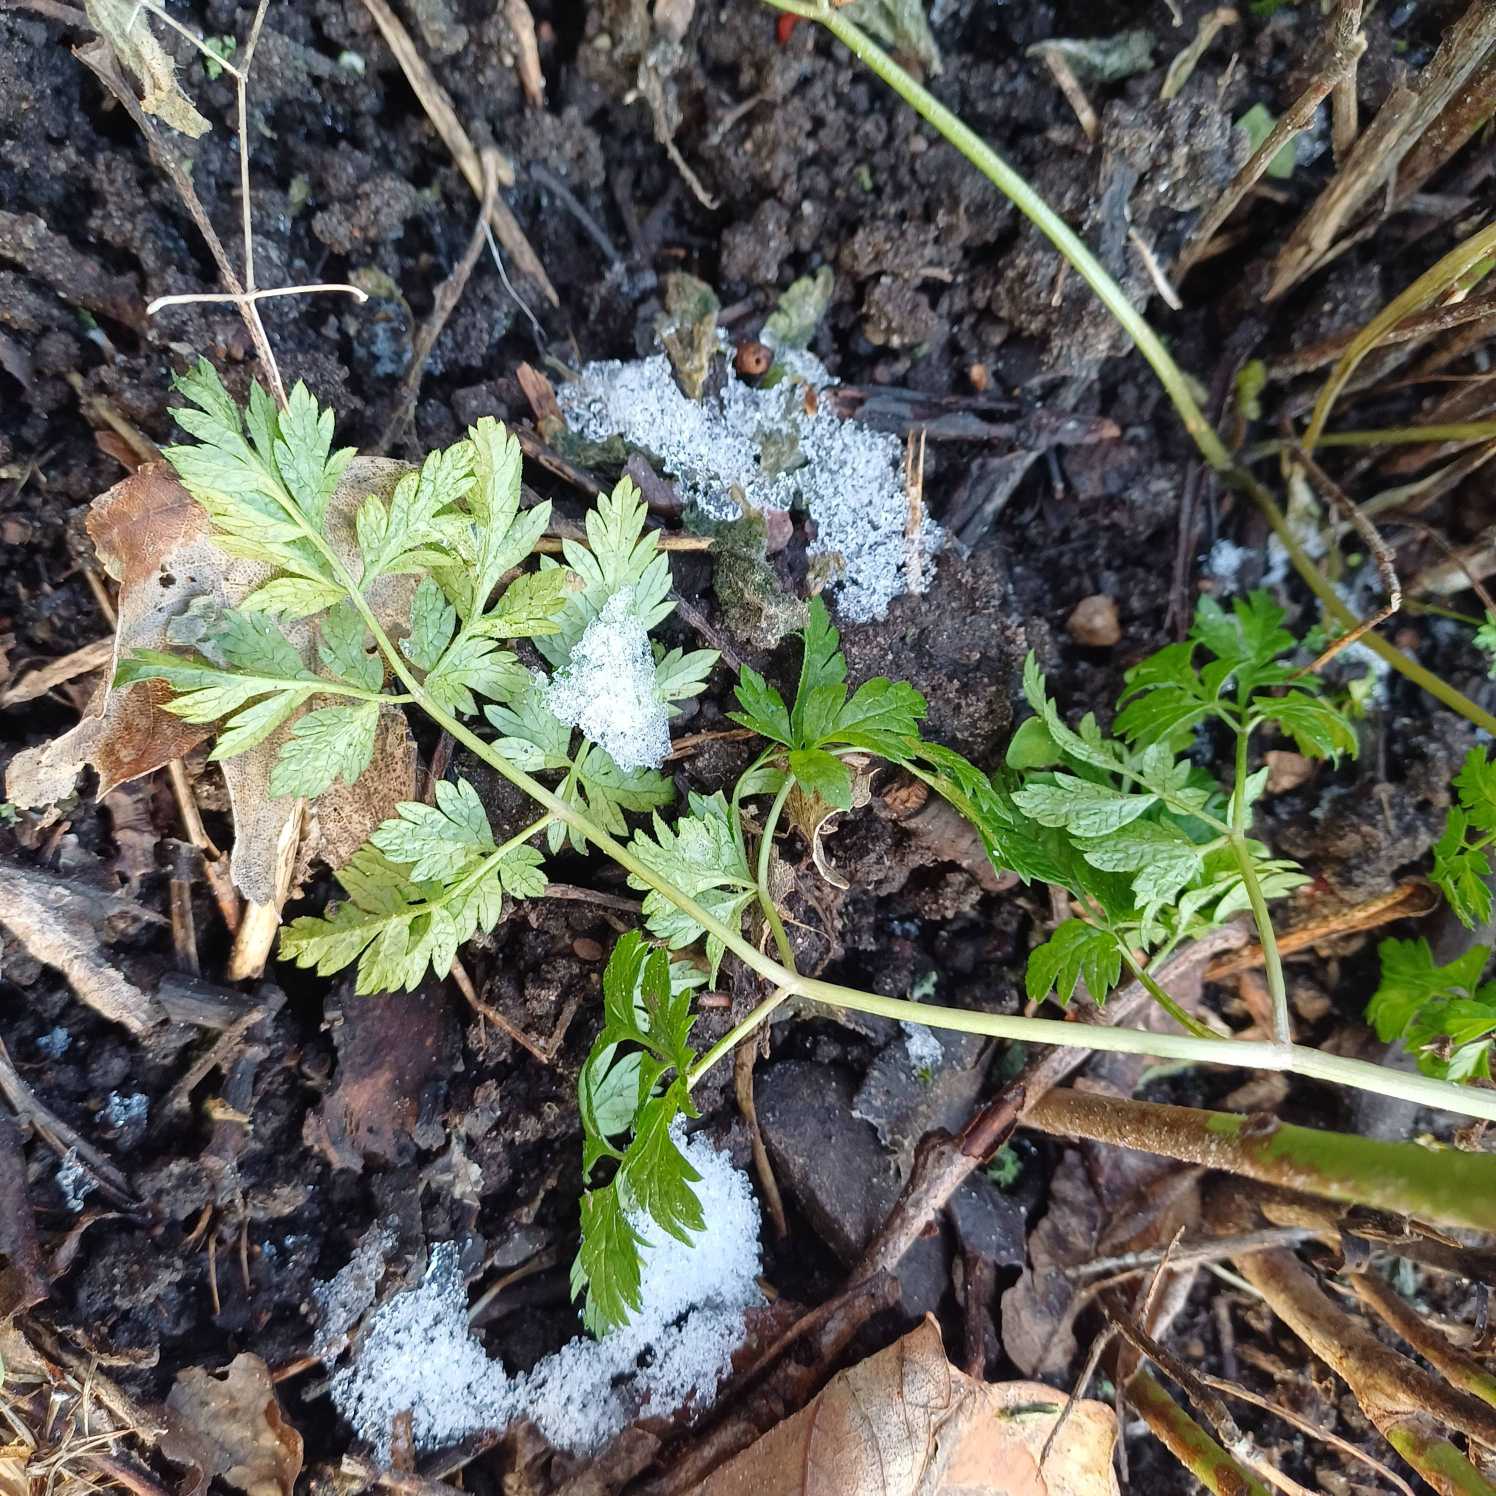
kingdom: Plantae
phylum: Tracheophyta
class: Magnoliopsida
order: Apiales
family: Apiaceae
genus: Anthriscus
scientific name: Anthriscus sylvestris
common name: Vild kørvel
